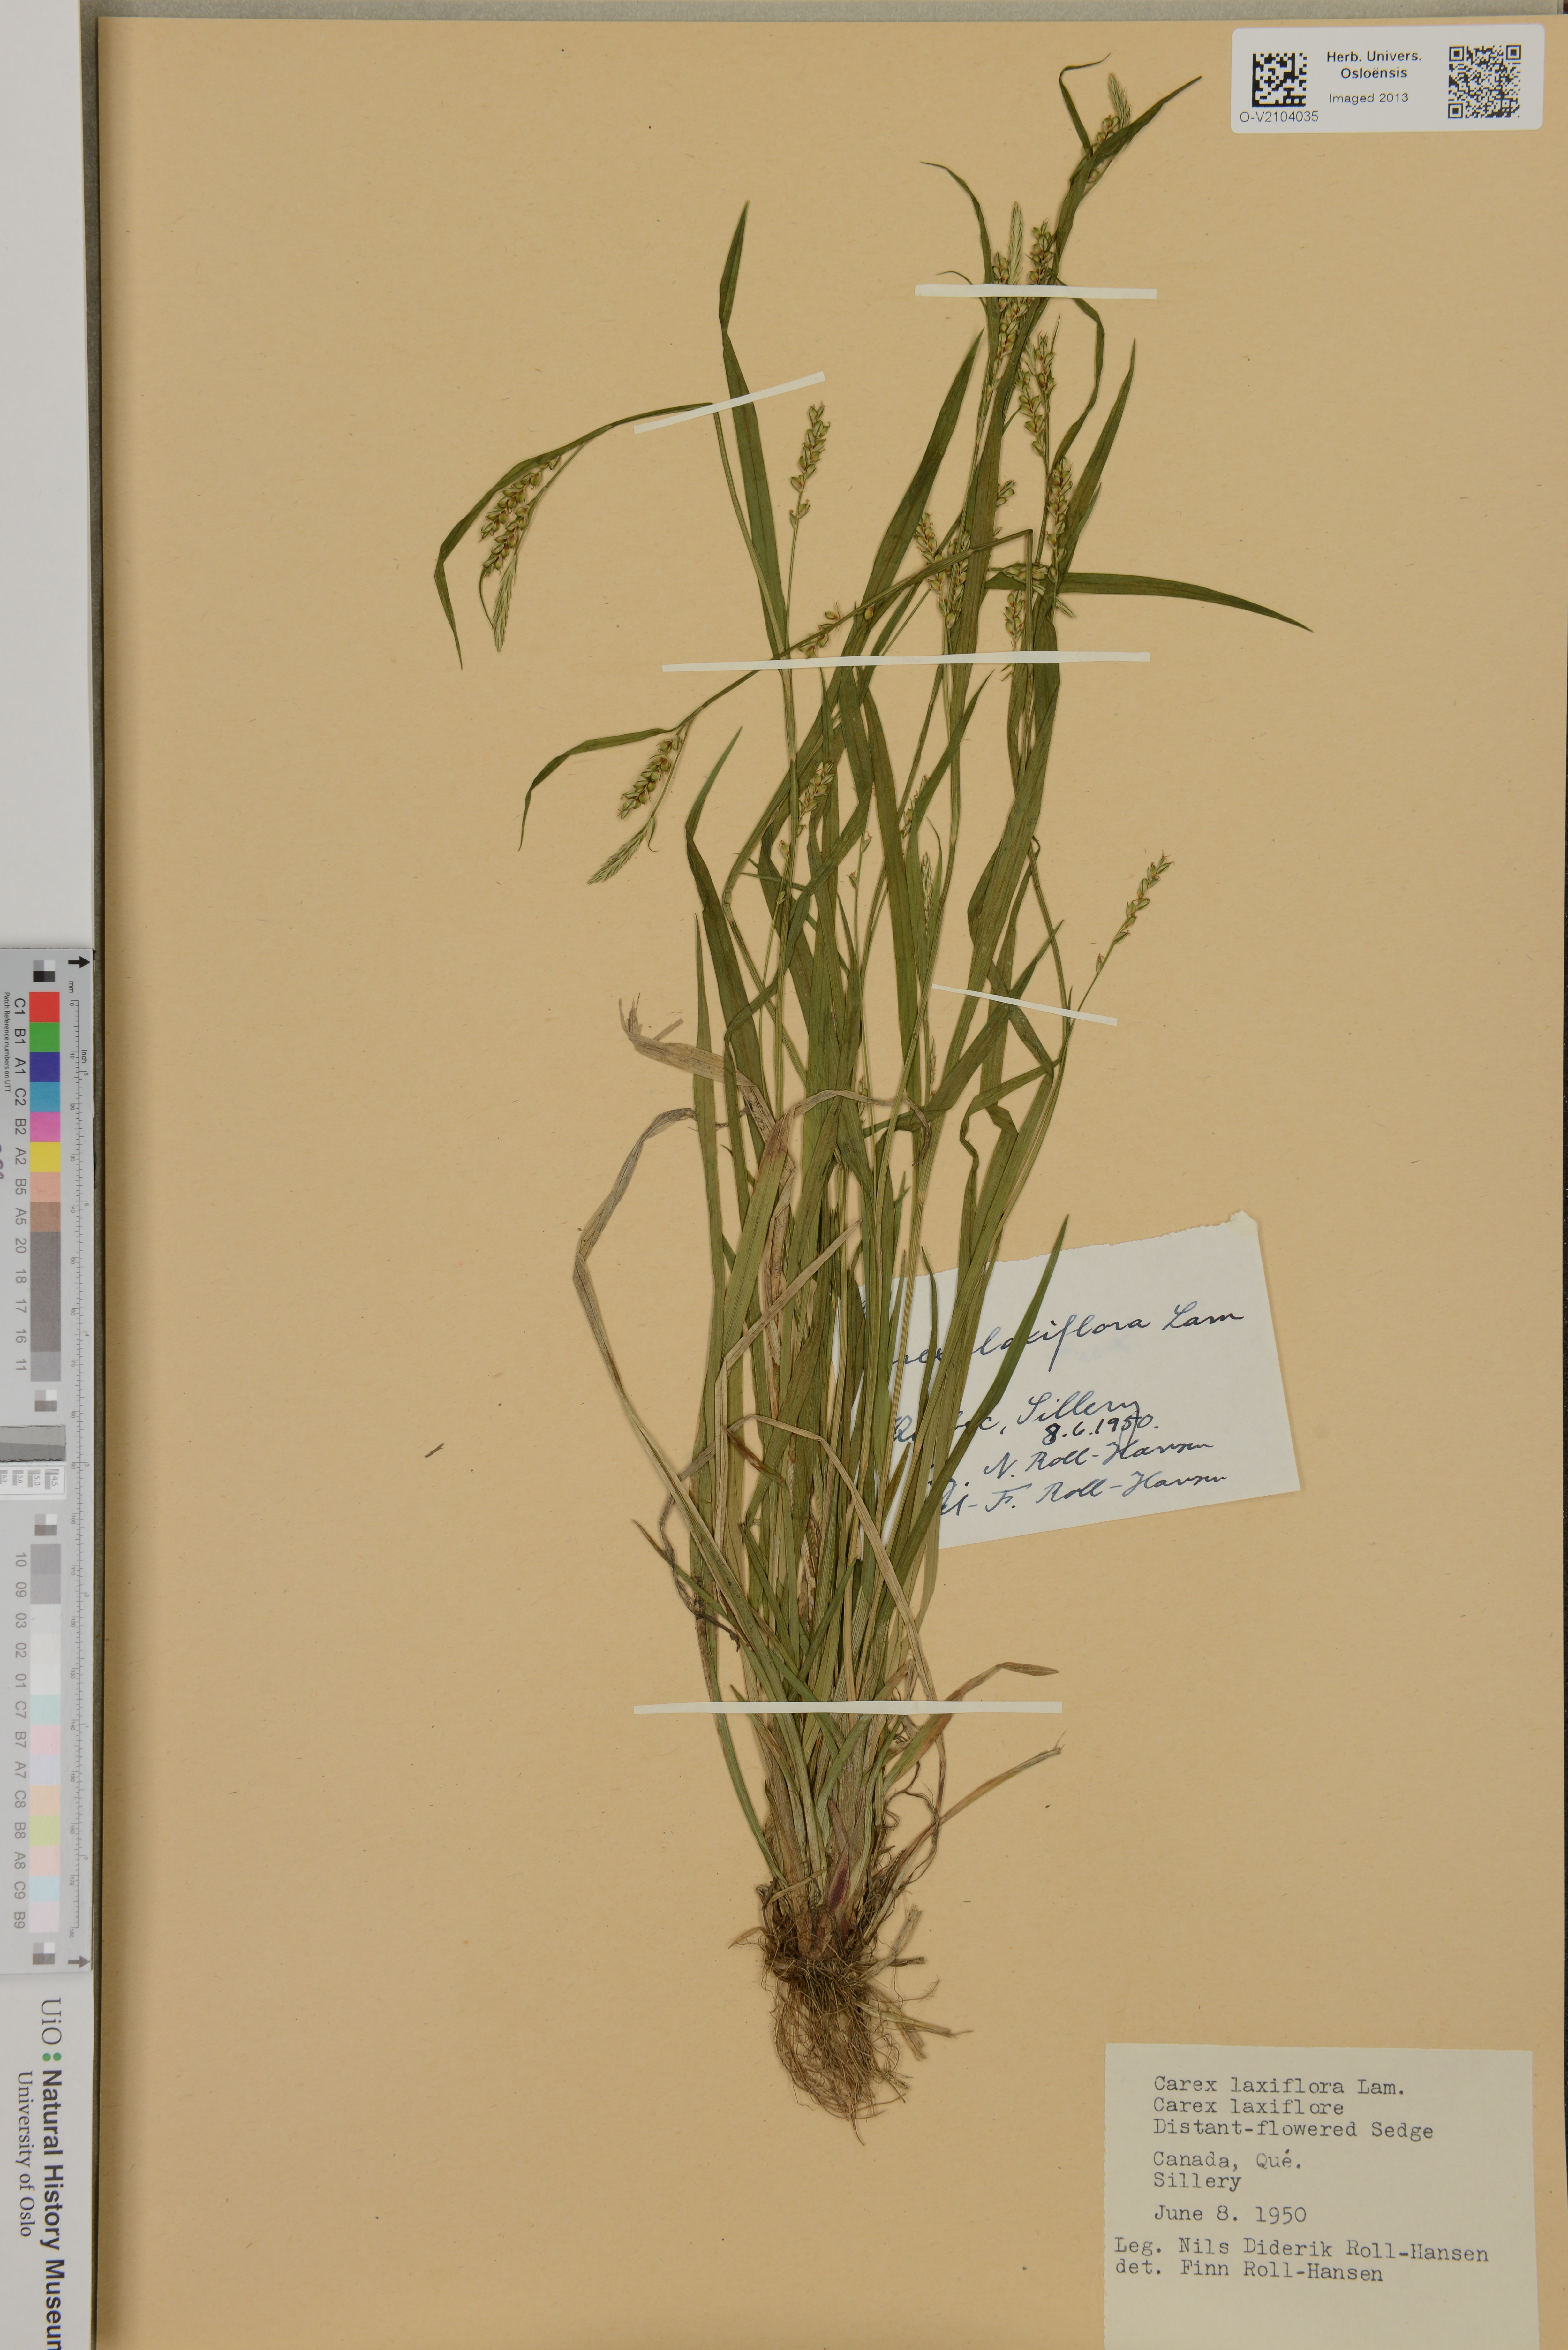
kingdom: Plantae
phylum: Tracheophyta
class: Liliopsida
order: Poales
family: Cyperaceae
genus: Carex
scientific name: Carex laxiflora
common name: Beech wood sedge
